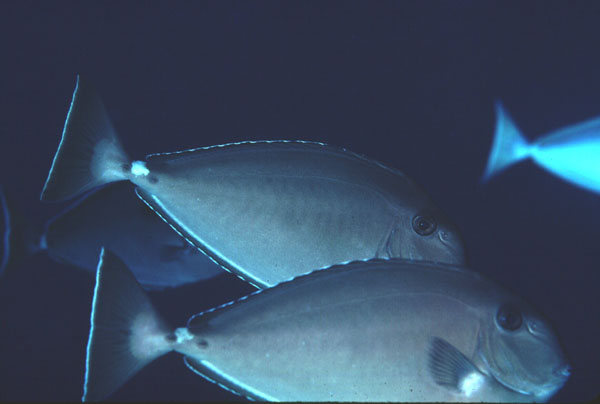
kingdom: Animalia
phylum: Chordata
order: Perciformes
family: Acanthuridae
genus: Naso
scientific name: Naso annulatus
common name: Whitemargin unicornfish
